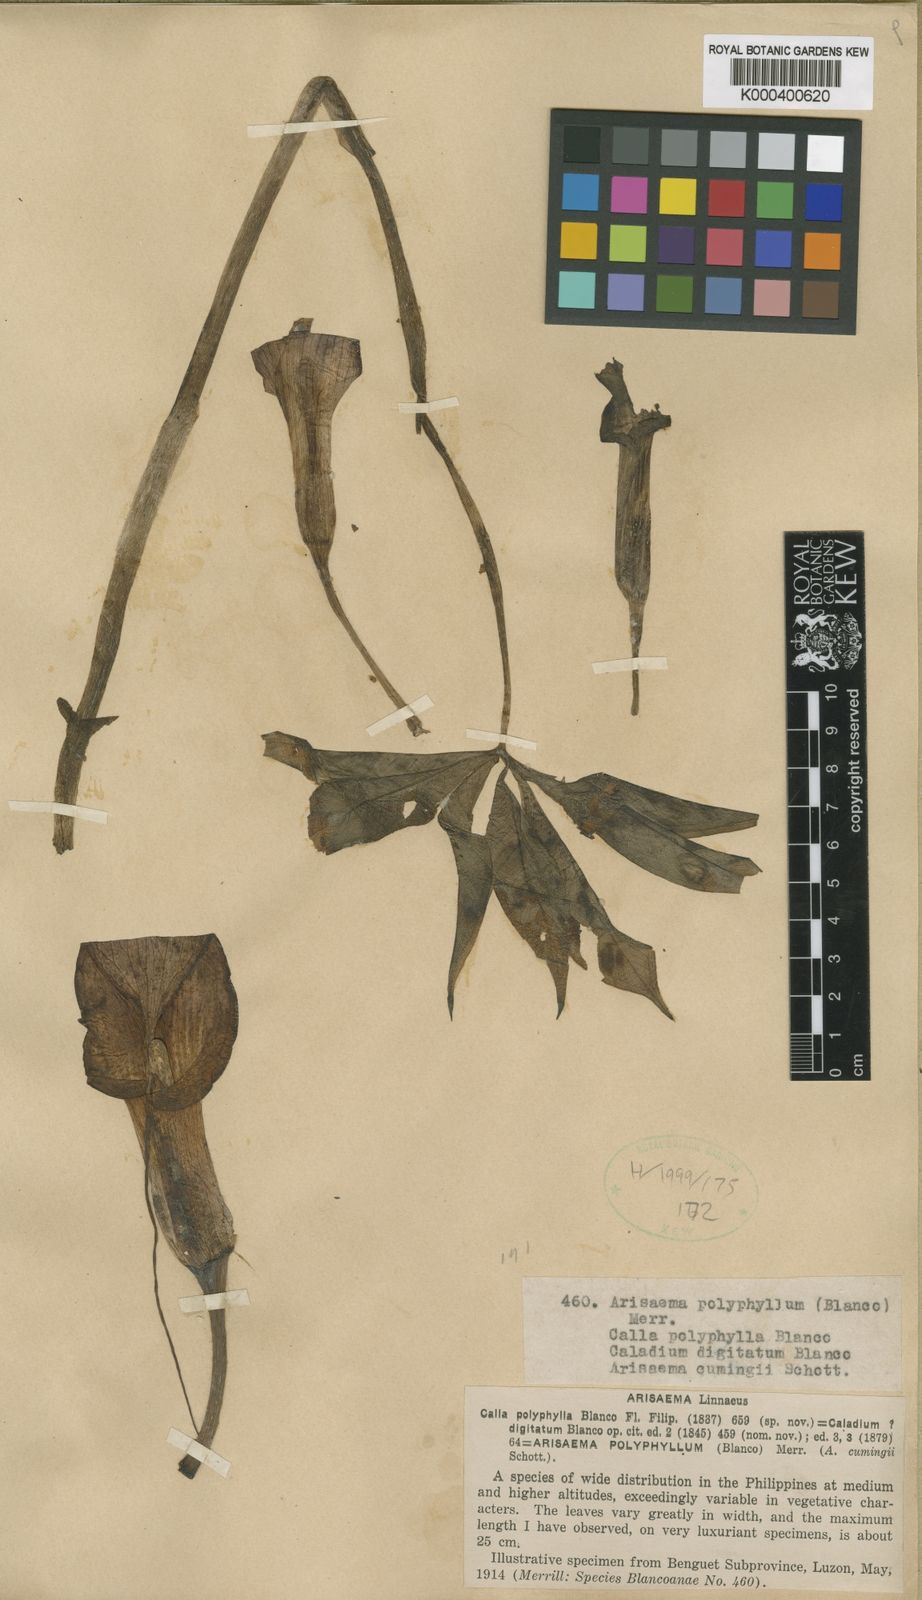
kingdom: Plantae
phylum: Tracheophyta
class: Liliopsida
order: Alismatales
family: Araceae
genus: Arisaema
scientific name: Arisaema polyphyllum
